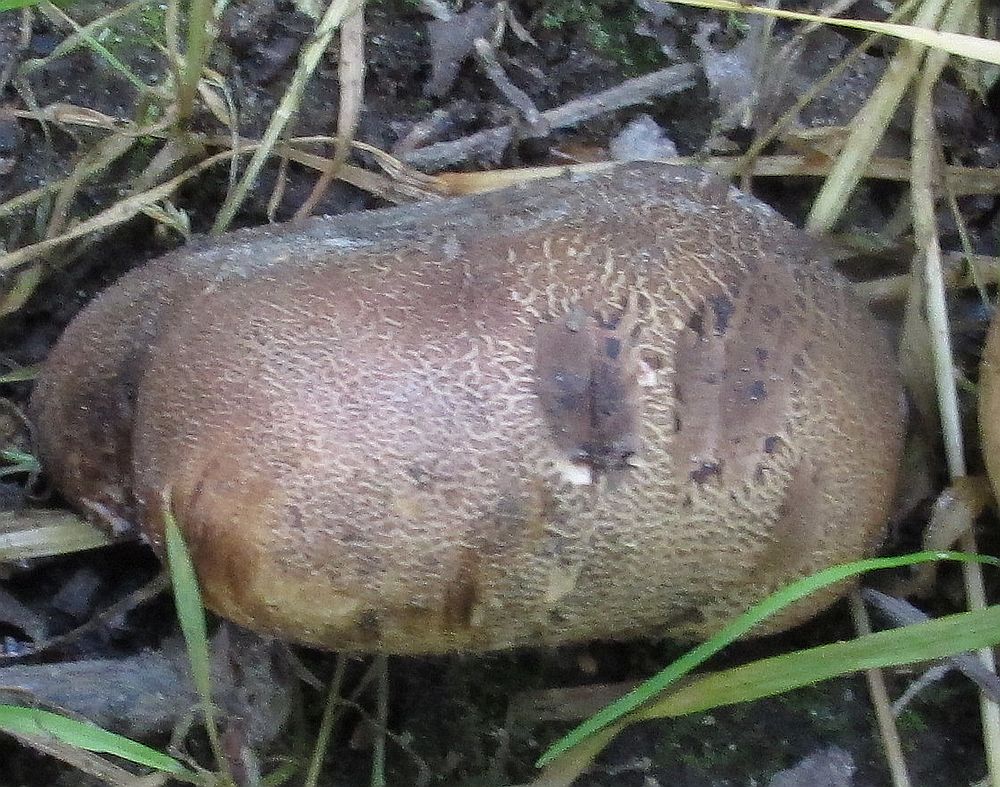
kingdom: Fungi
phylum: Basidiomycota
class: Agaricomycetes
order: Boletales
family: Sclerodermataceae
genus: Scleroderma
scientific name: Scleroderma verrucosum
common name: stilket bruskbold
